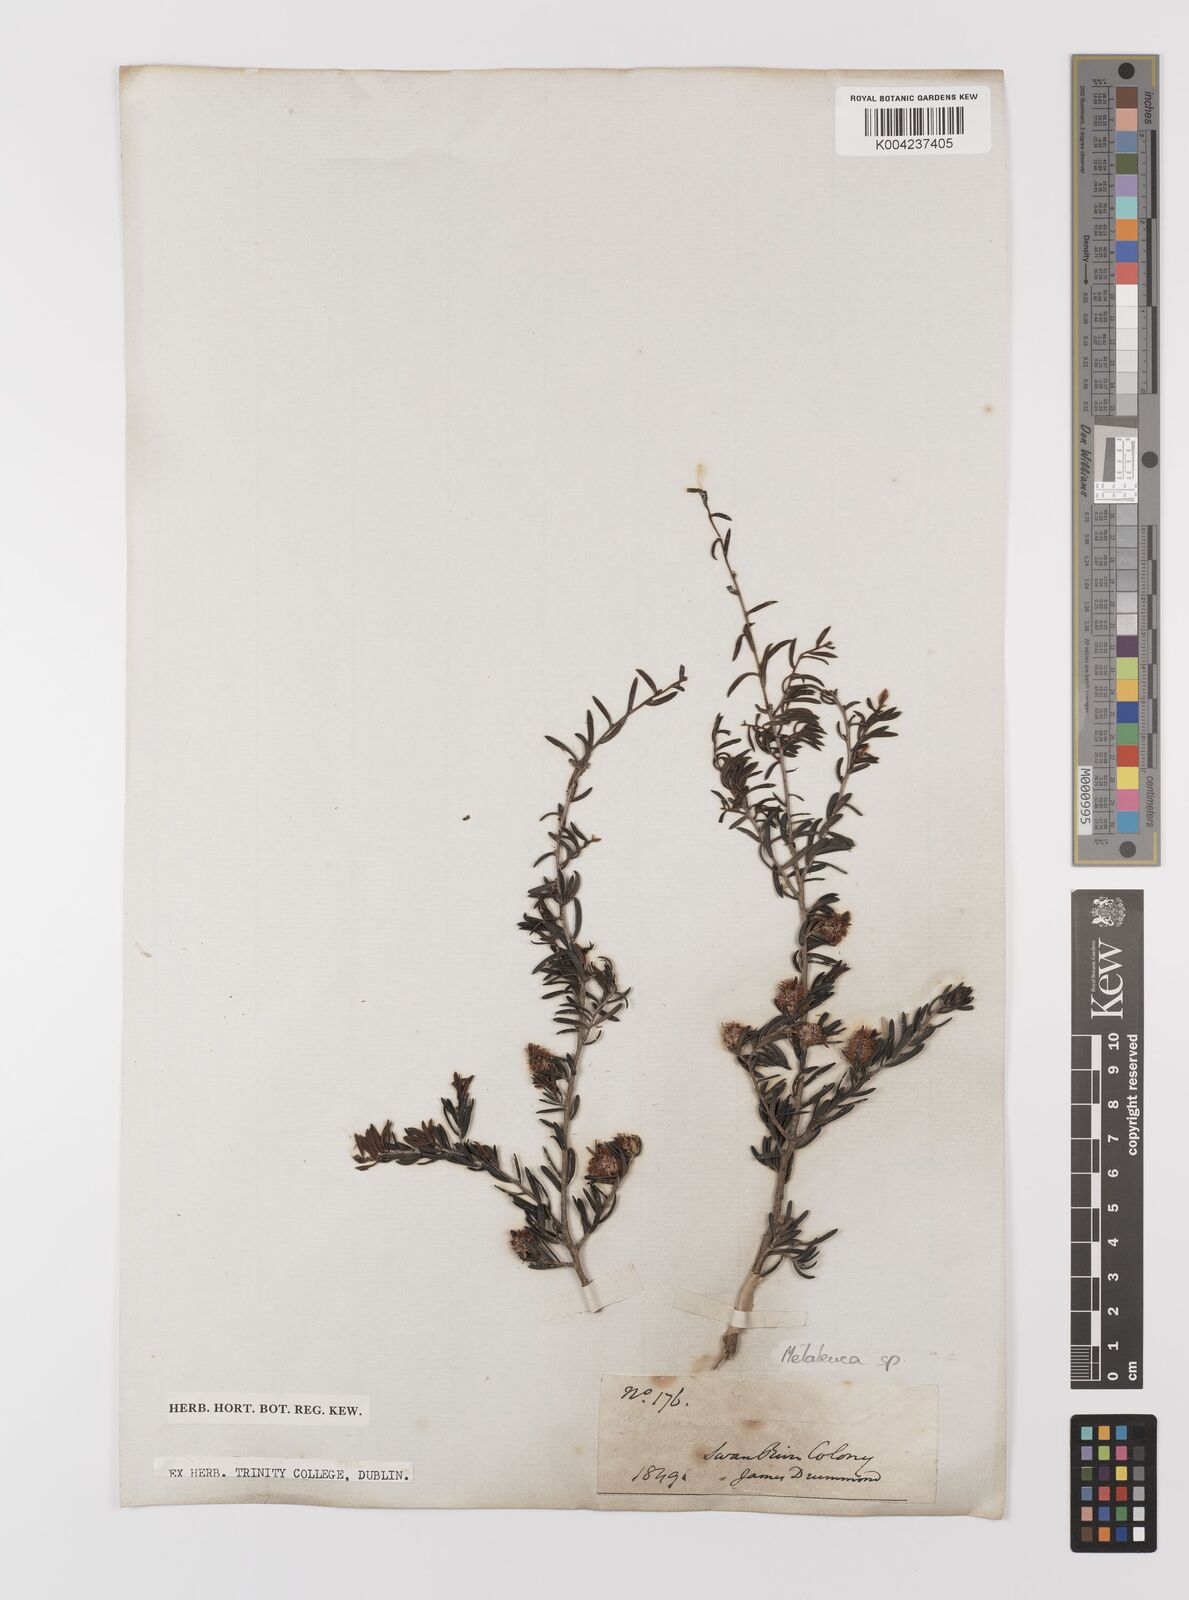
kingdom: Plantae
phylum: Tracheophyta
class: Magnoliopsida
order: Myrtales
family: Myrtaceae
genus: Melaleuca
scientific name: Melaleuca
